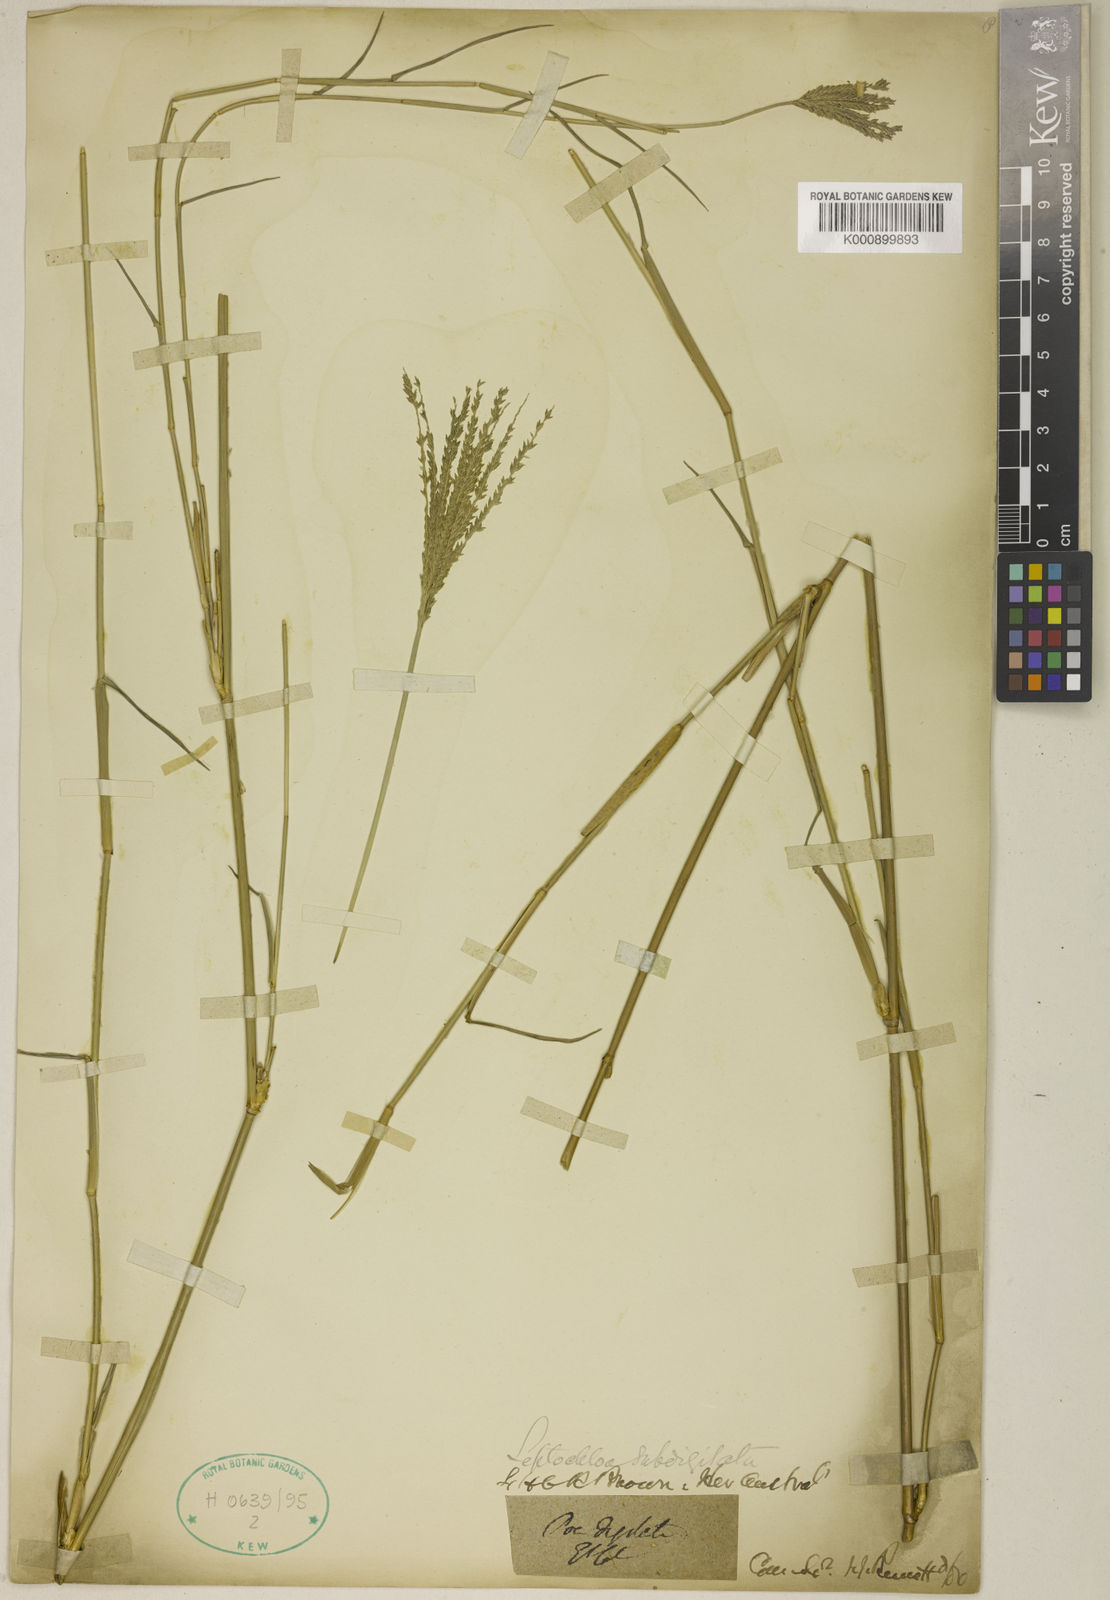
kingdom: Plantae
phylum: Tracheophyta
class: Liliopsida
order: Poales
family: Poaceae
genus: Leptochloa
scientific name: Leptochloa digitata
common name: Finger sprangletop
